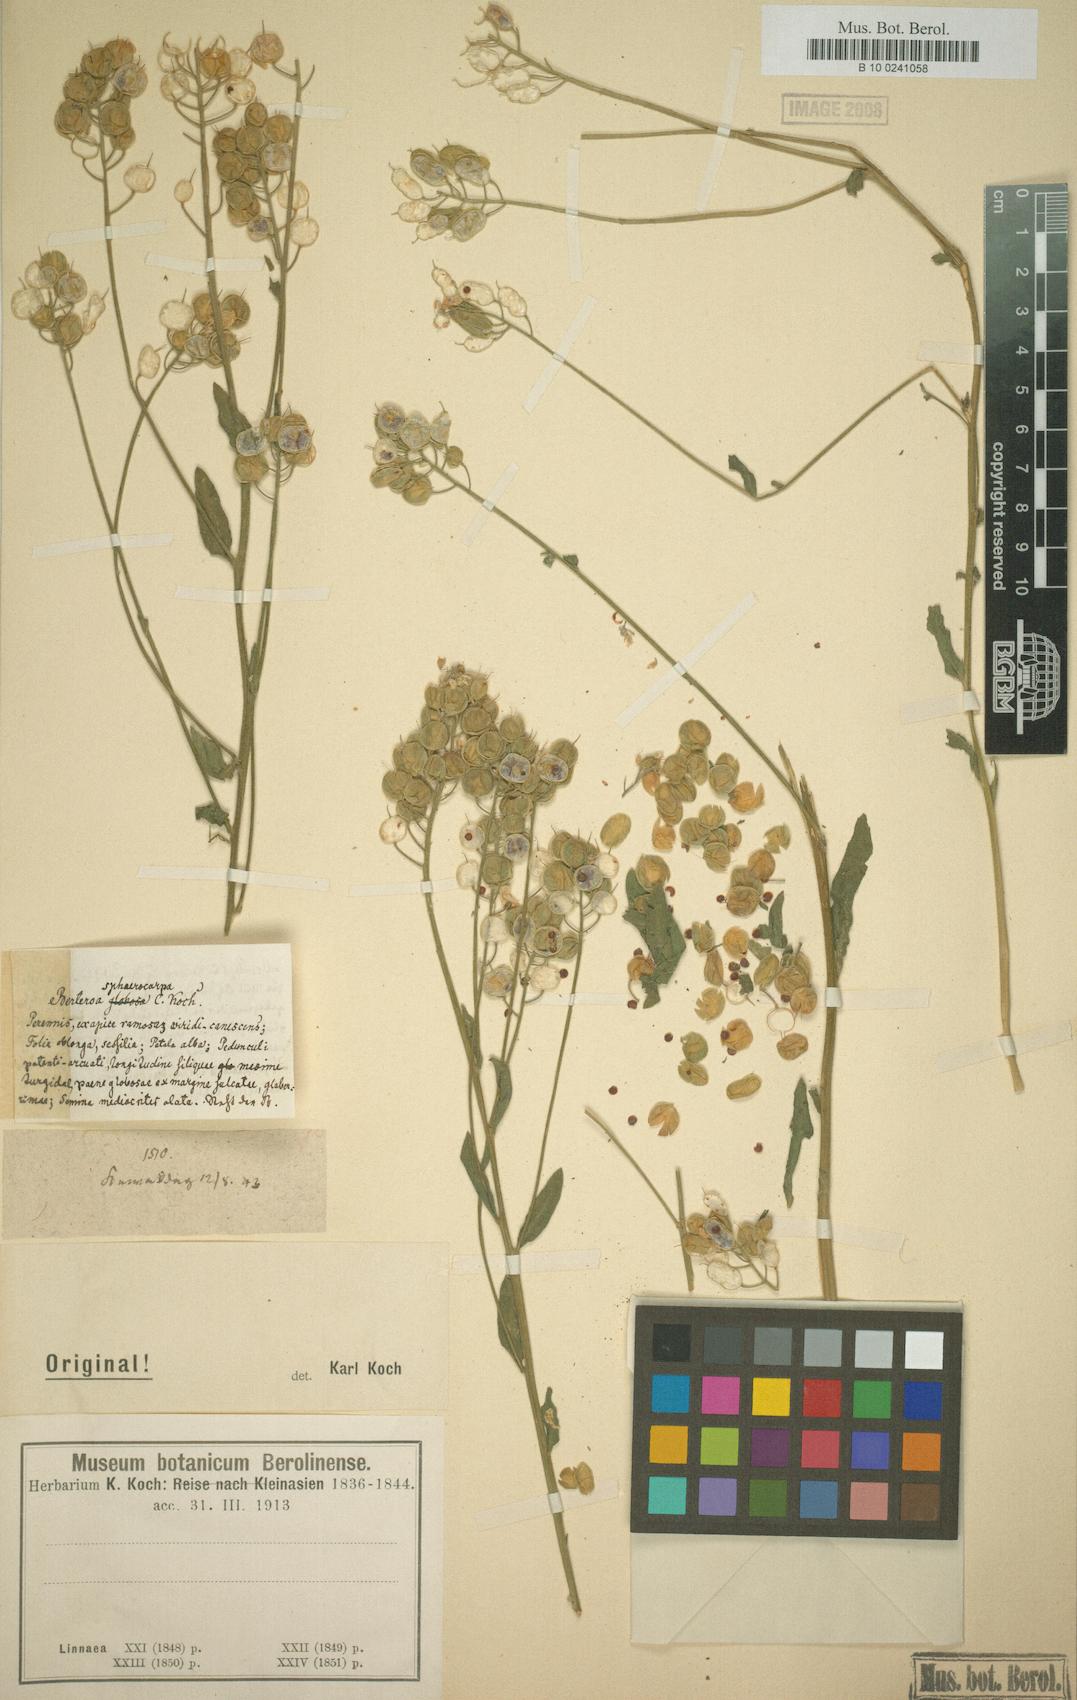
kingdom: Plantae
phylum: Tracheophyta
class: Magnoliopsida
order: Brassicales
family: Brassicaceae
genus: Berteroa
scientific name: Berteroa
